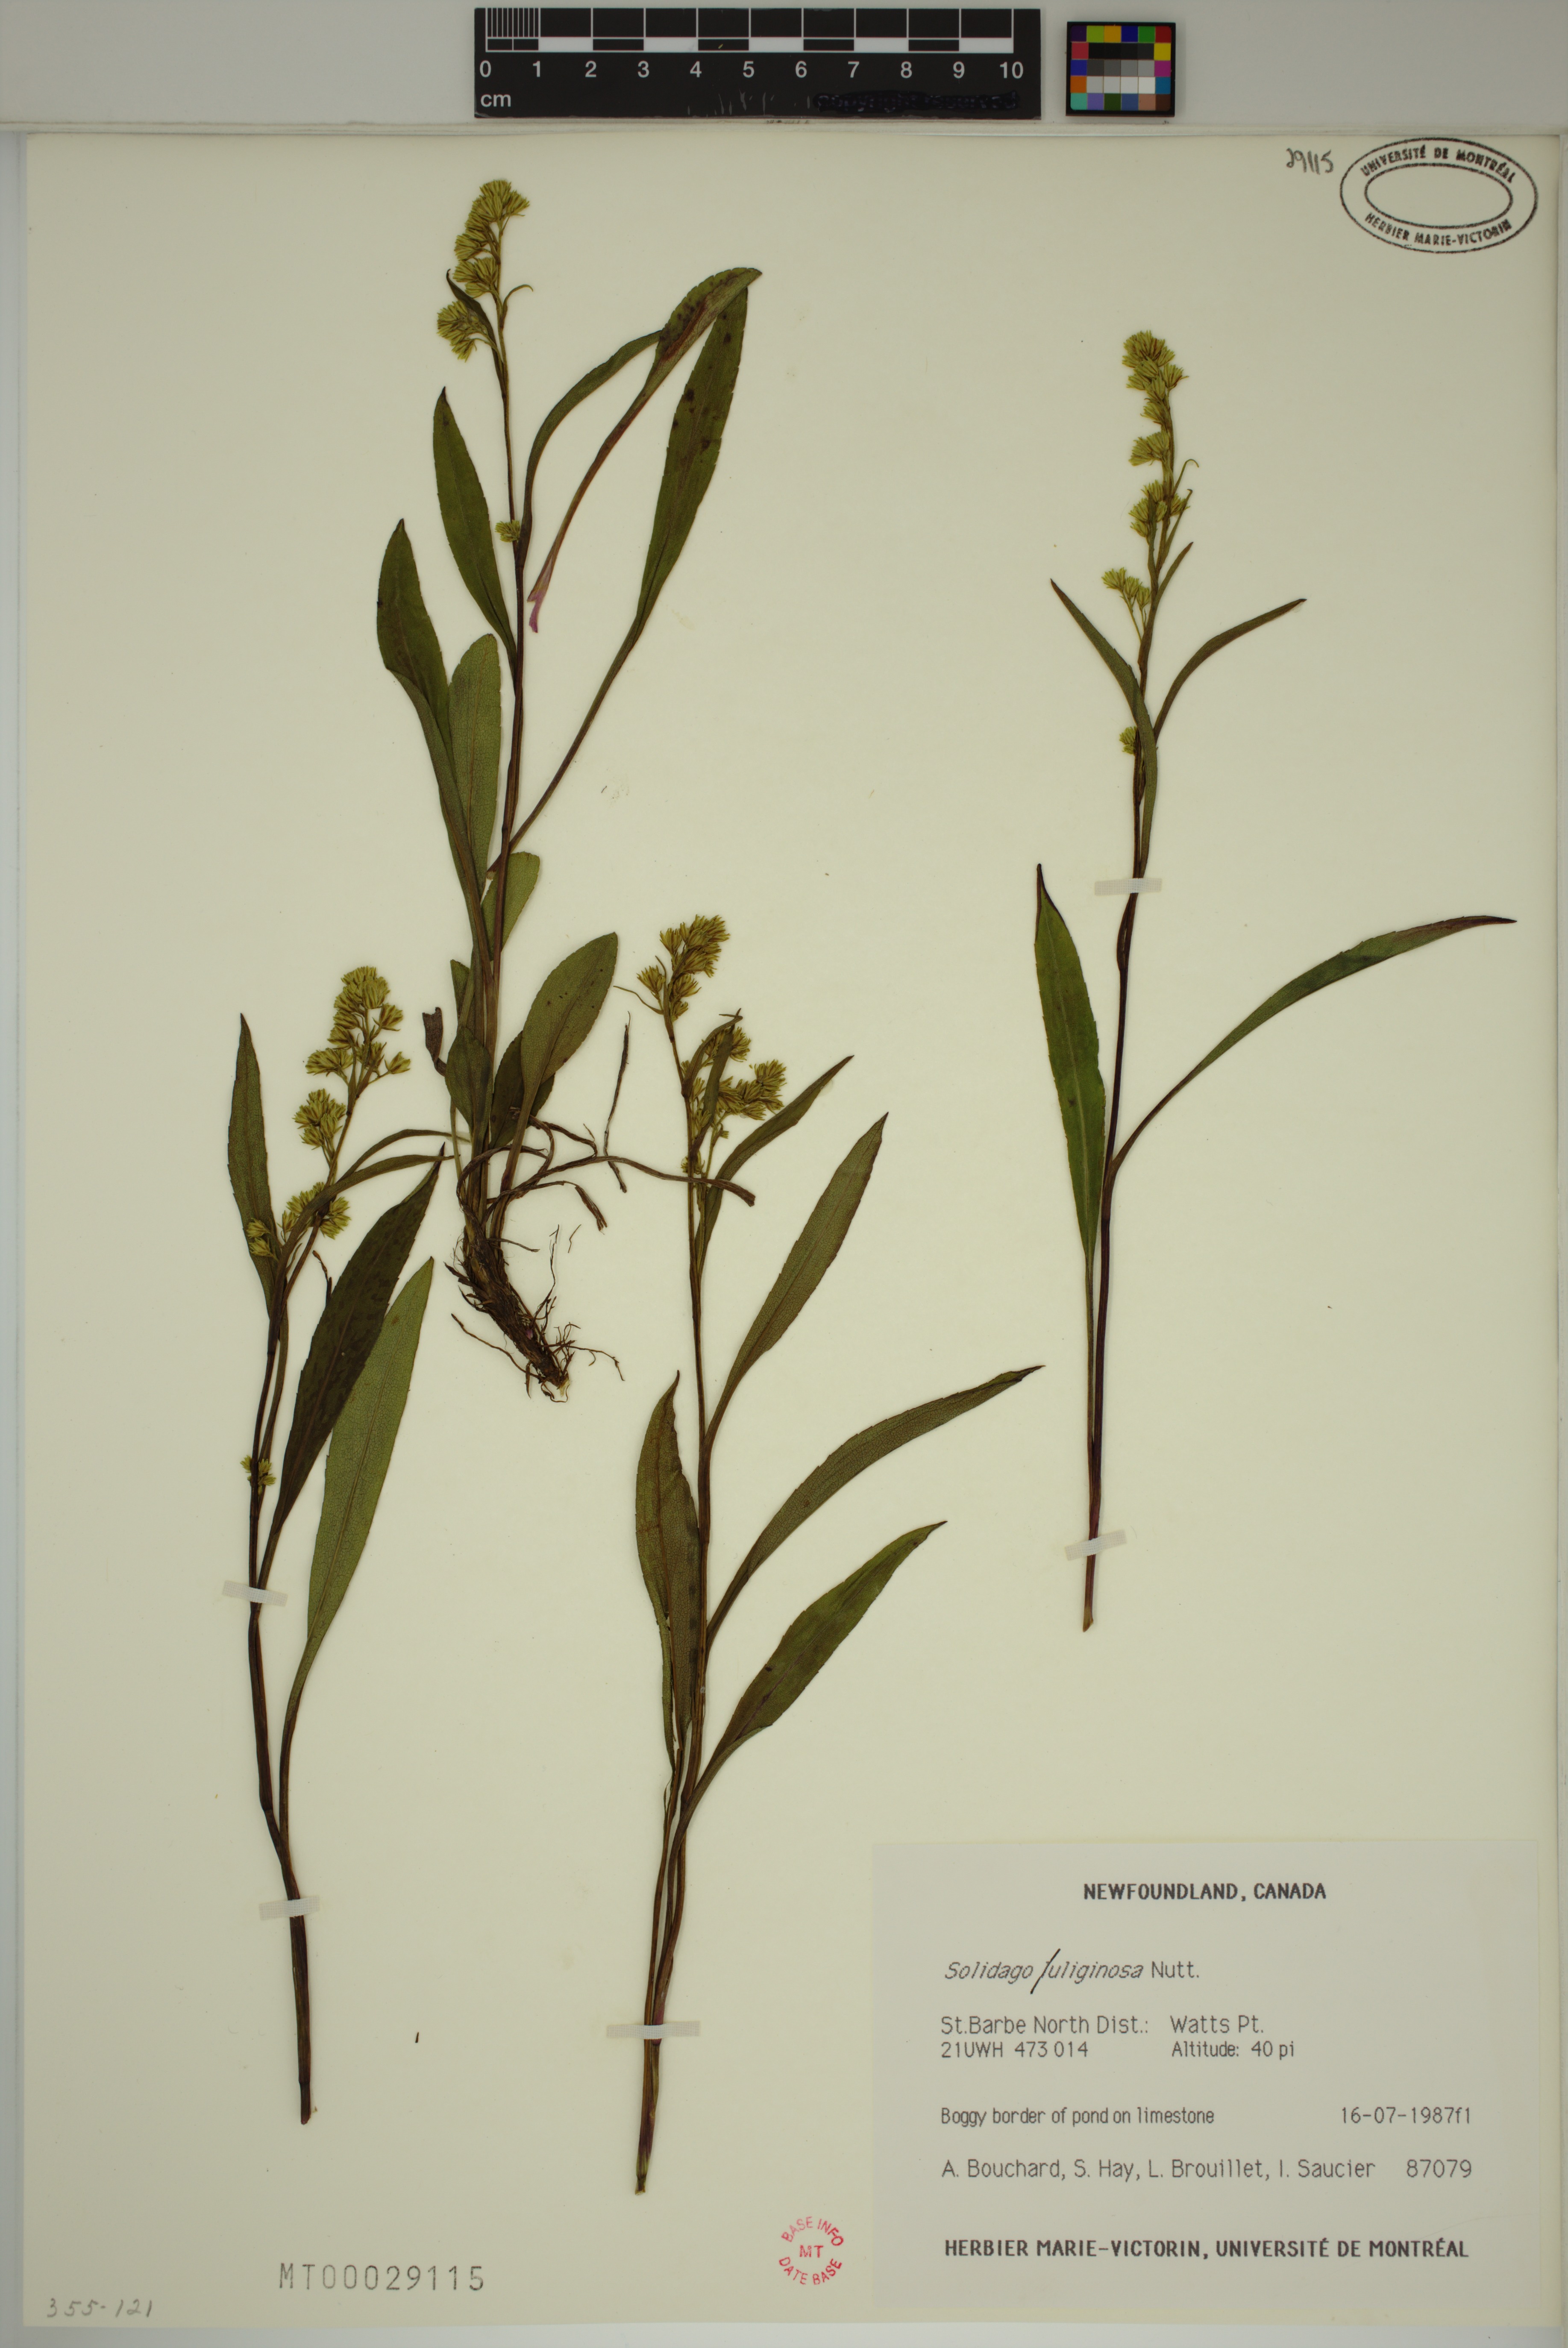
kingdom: Plantae
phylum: Tracheophyta
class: Magnoliopsida
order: Asterales
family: Asteraceae
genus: Solidago
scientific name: Solidago uliginosa
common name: Bog goldenrod
